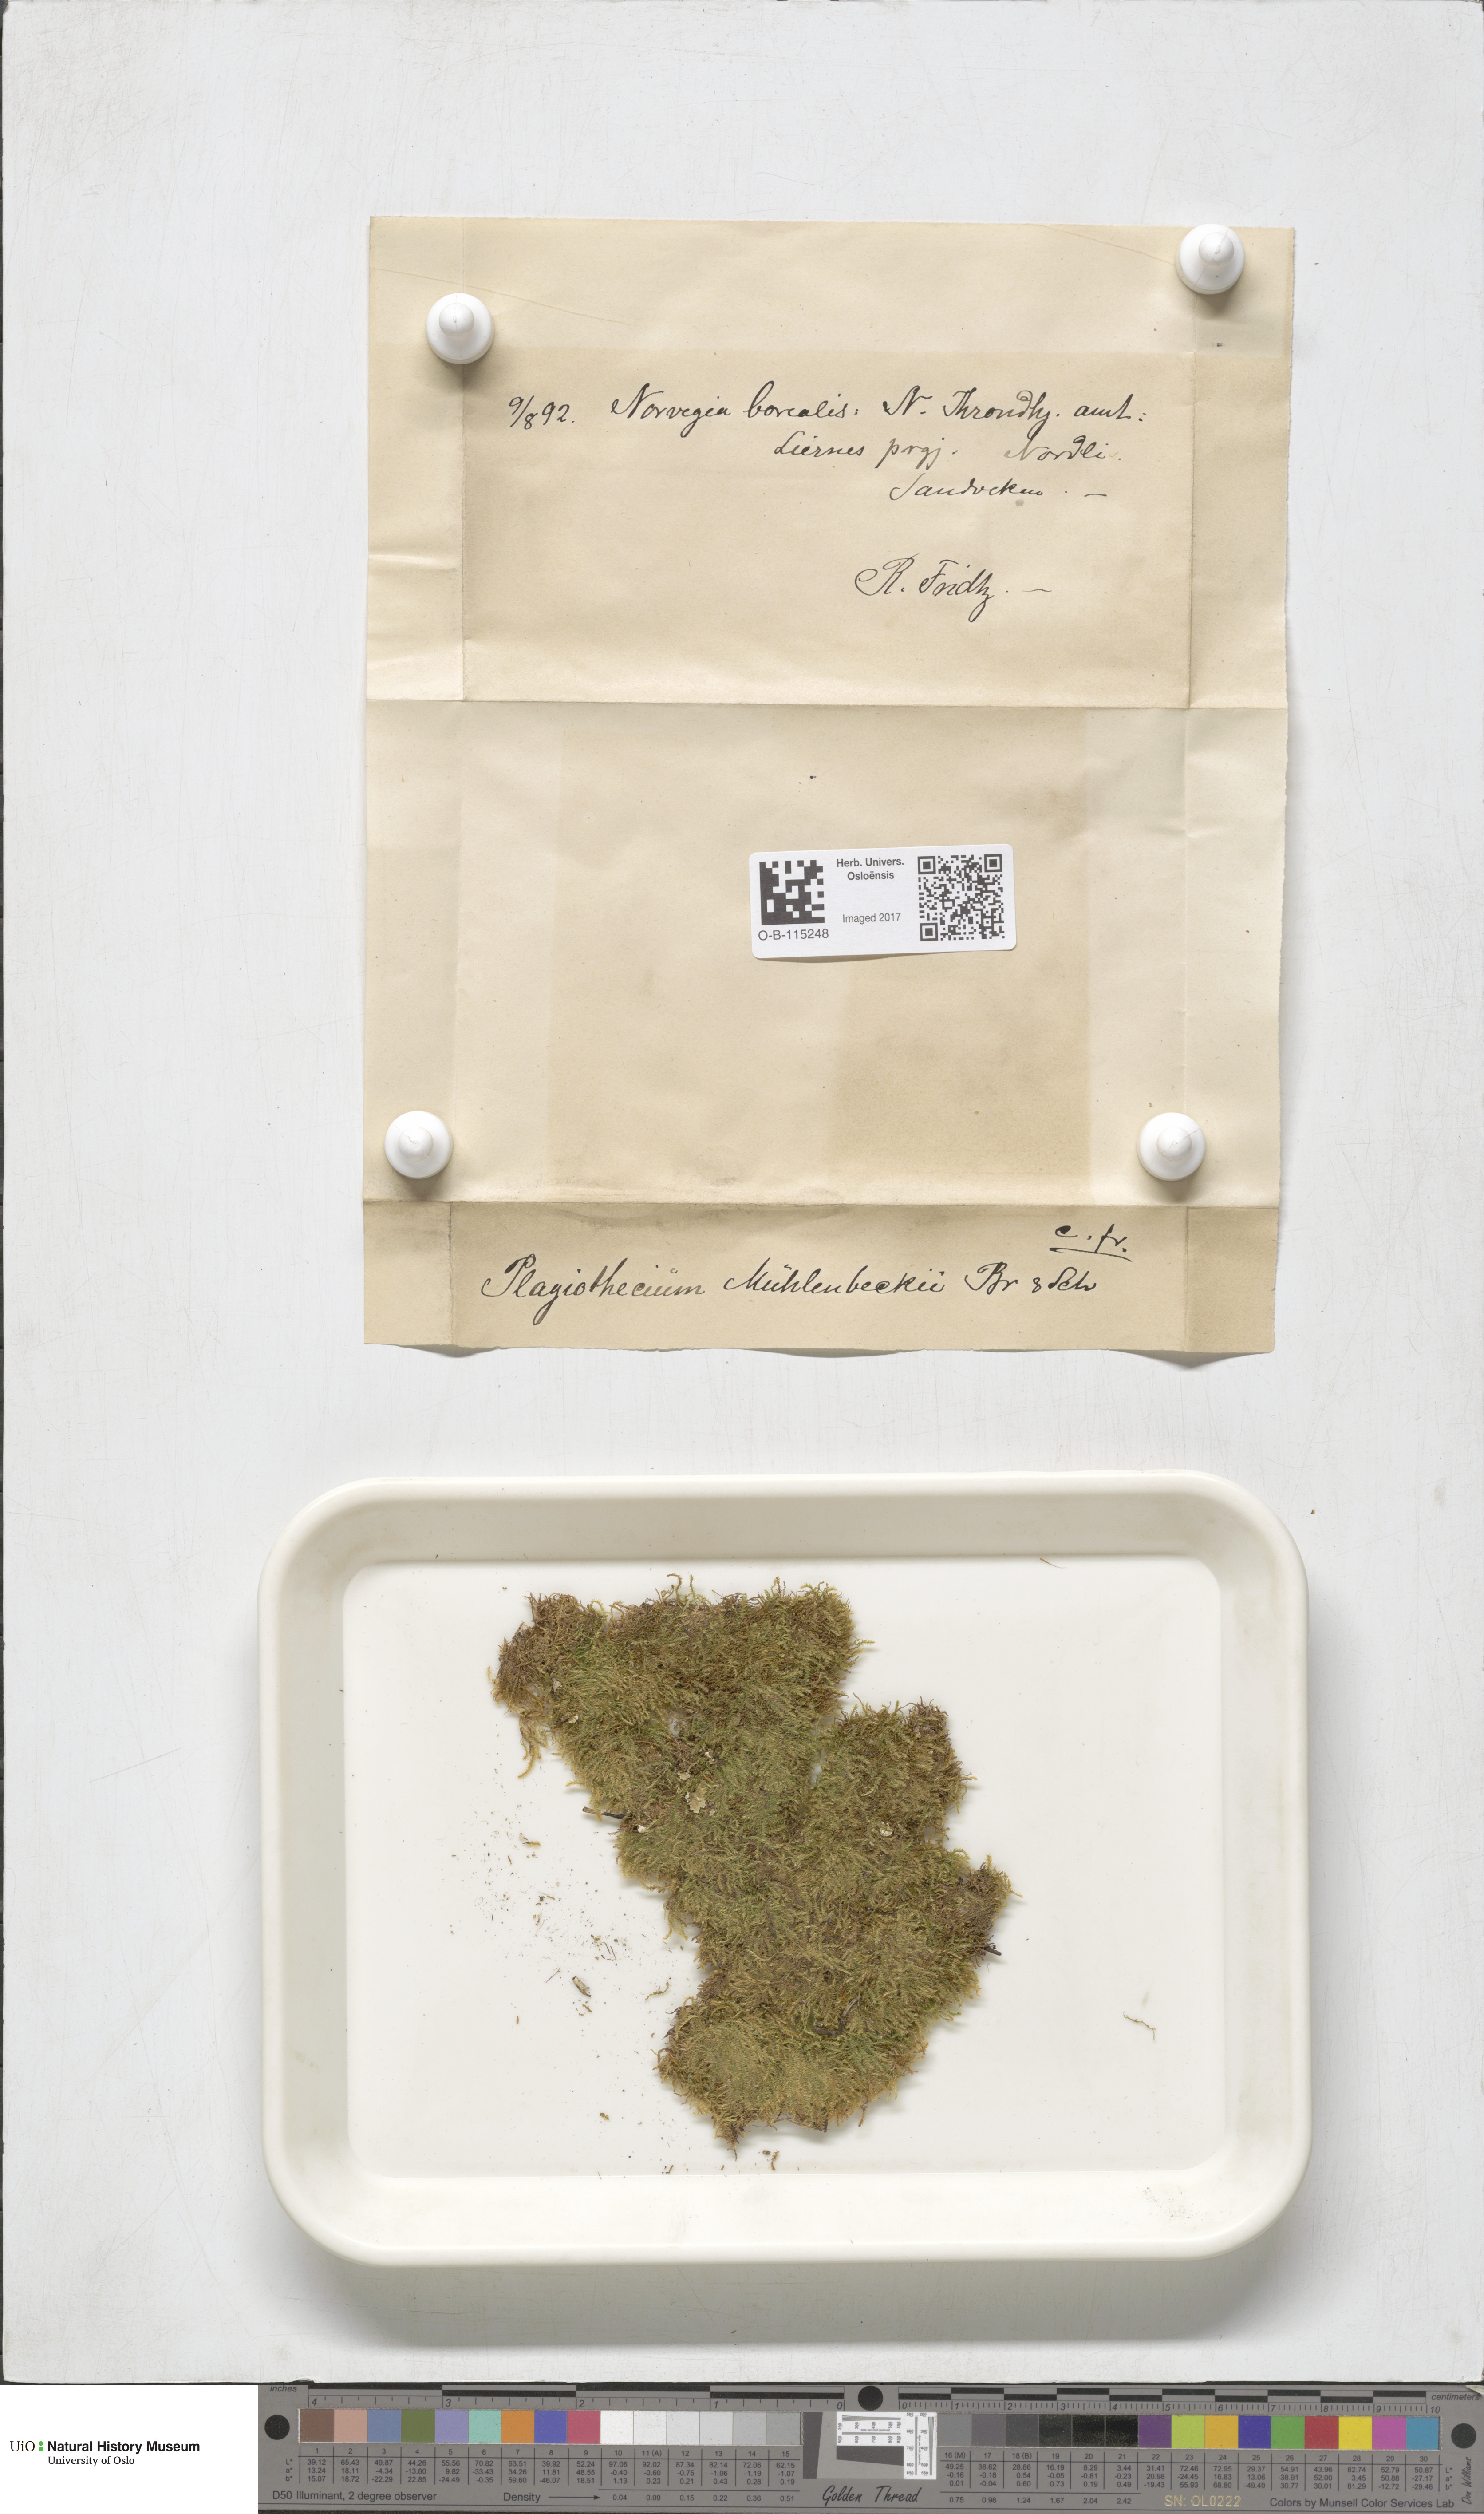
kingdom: Plantae
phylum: Bryophyta
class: Bryopsida
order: Hypnales
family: Plagiotheciaceae
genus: Herzogiella
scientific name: Herzogiella striatella
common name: Muhlenbeck's feather-moss
